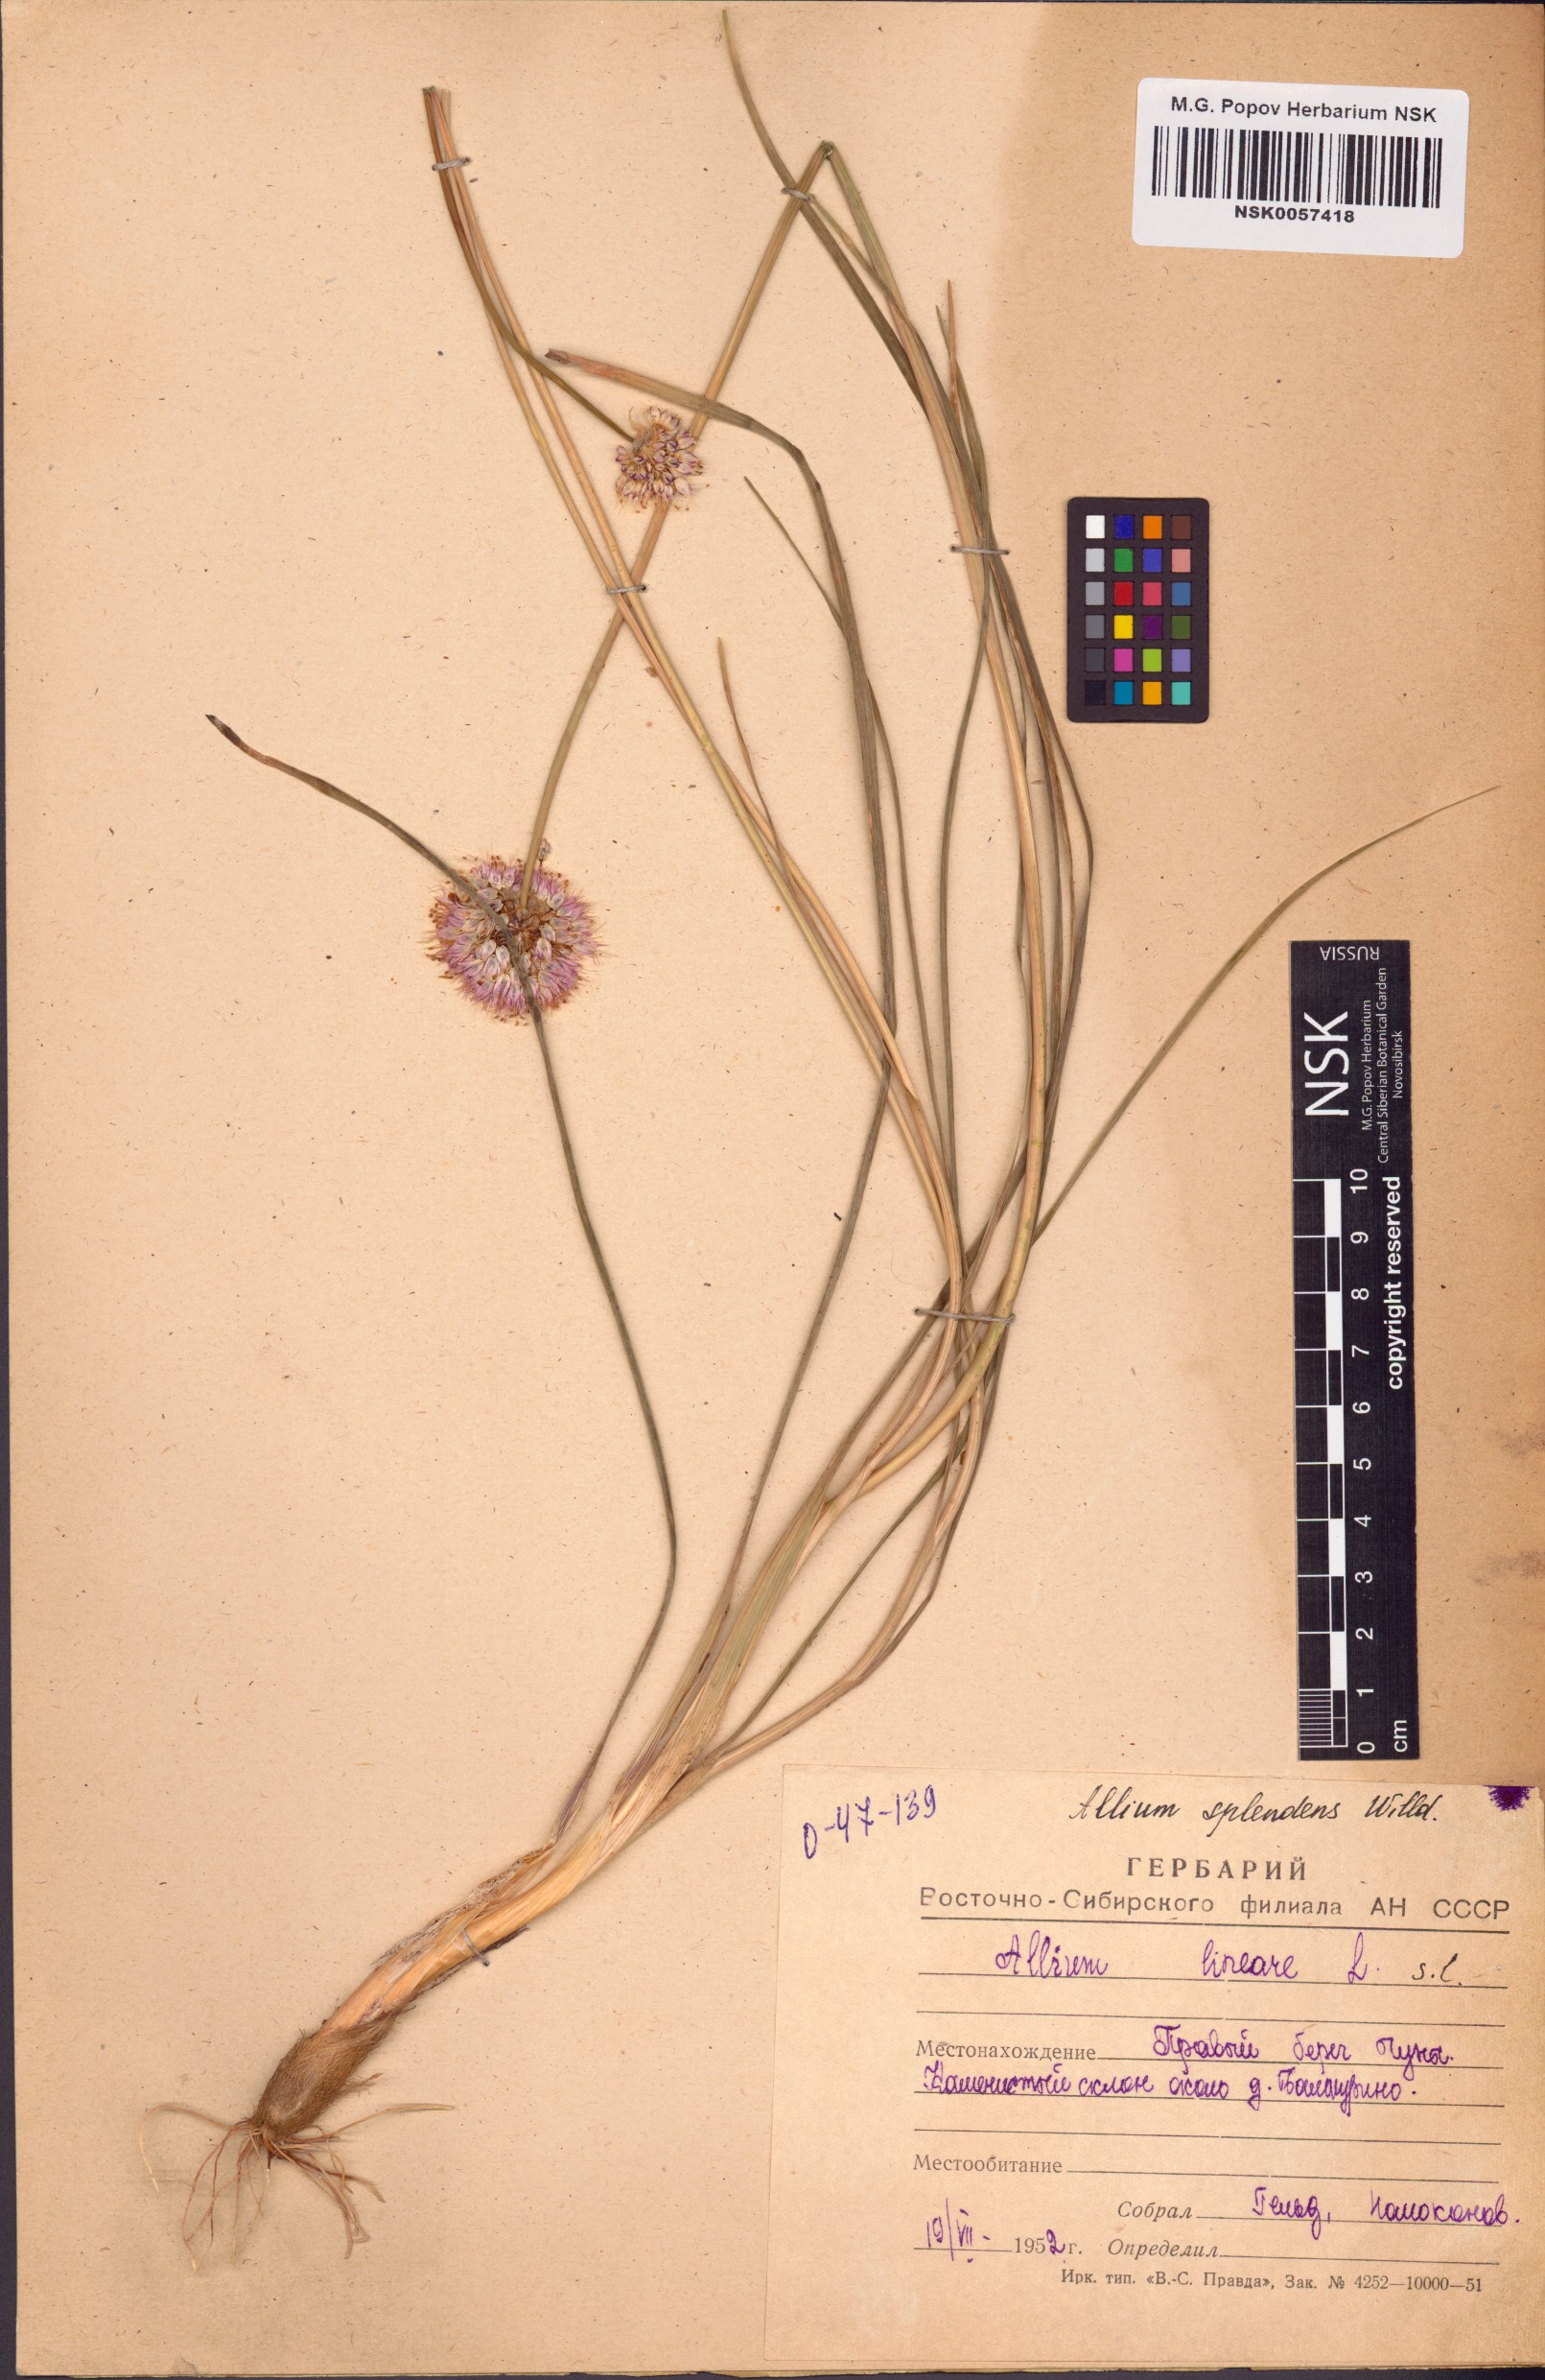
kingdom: Plantae
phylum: Tracheophyta
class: Liliopsida
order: Asparagales
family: Amaryllidaceae
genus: Allium
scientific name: Allium splendens
